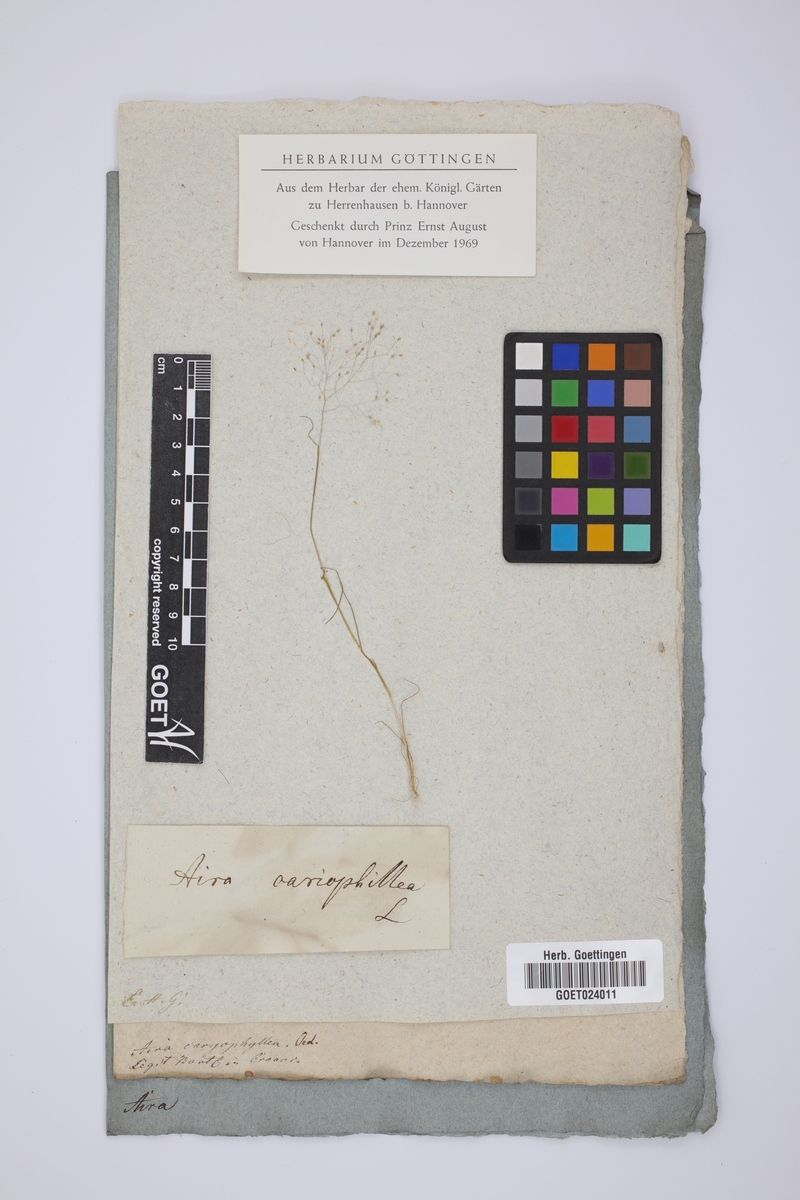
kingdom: Plantae
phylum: Tracheophyta
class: Liliopsida
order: Poales
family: Poaceae
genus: Aira
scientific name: Aira caryophyllea
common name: Silver hairgrass
